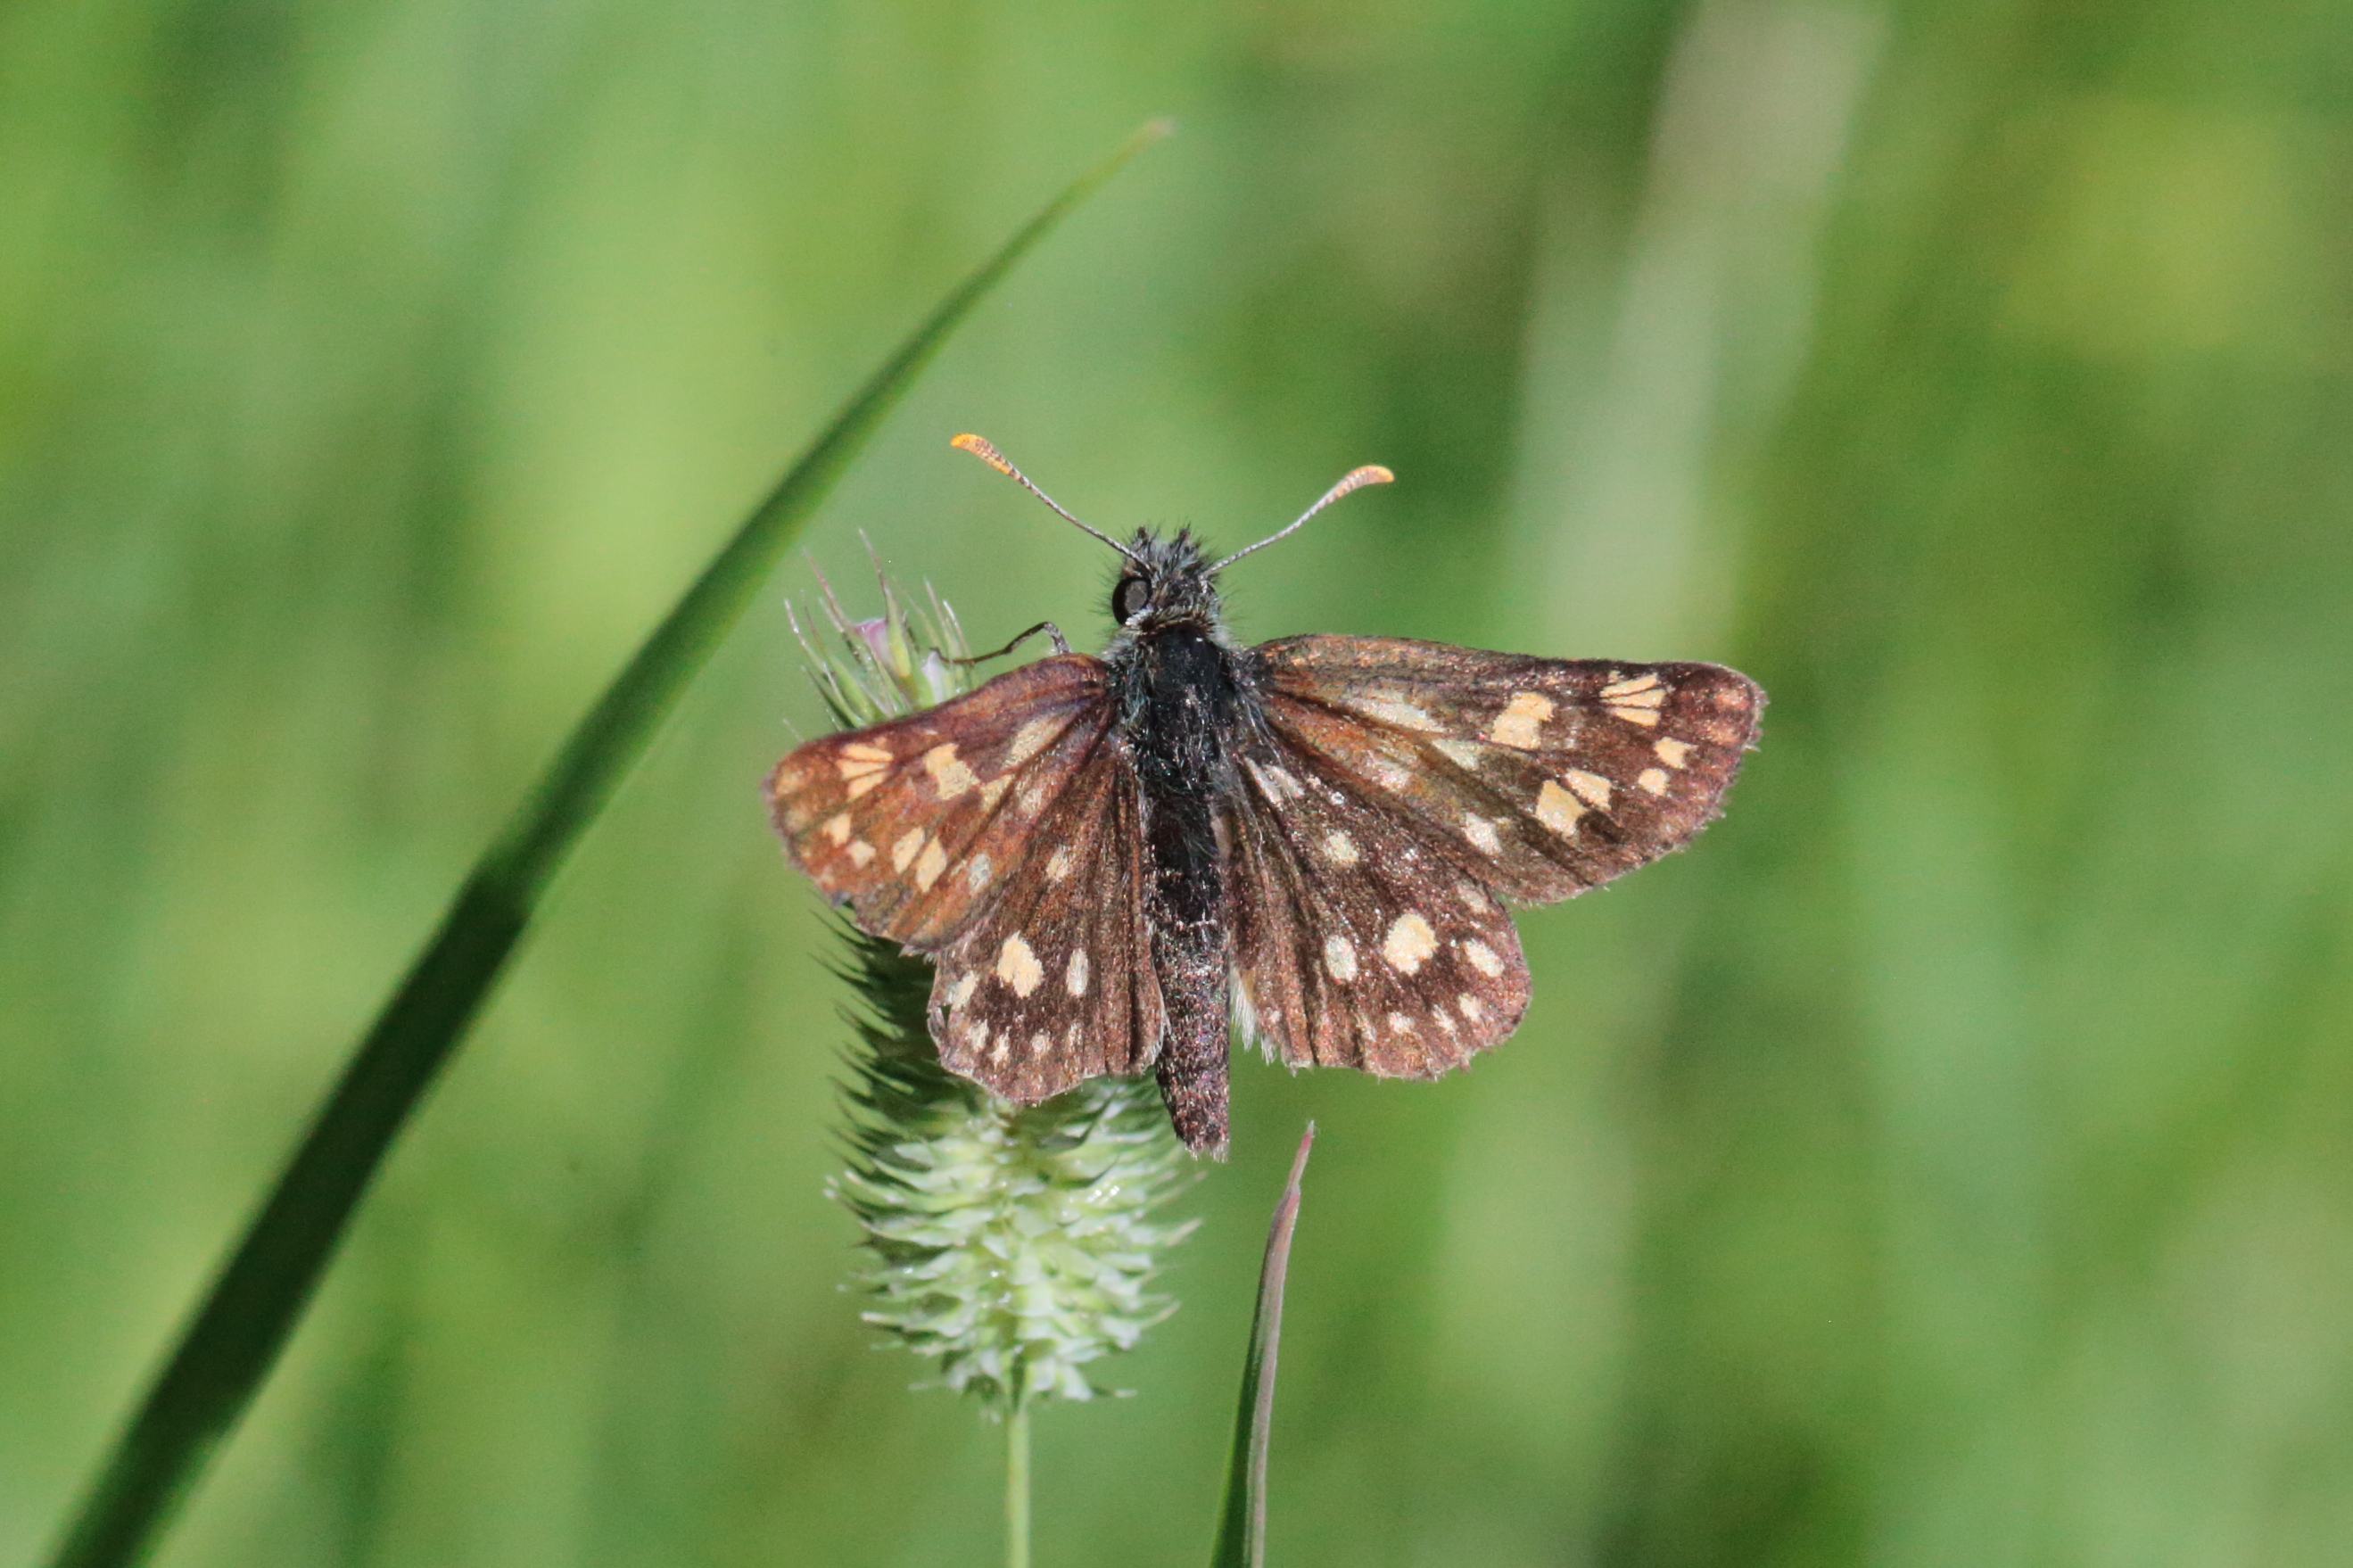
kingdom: Animalia
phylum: Arthropoda
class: Insecta
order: Lepidoptera
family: Hesperiidae
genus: Carterocephalus
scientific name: Carterocephalus palaemon
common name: Chequered skipper
